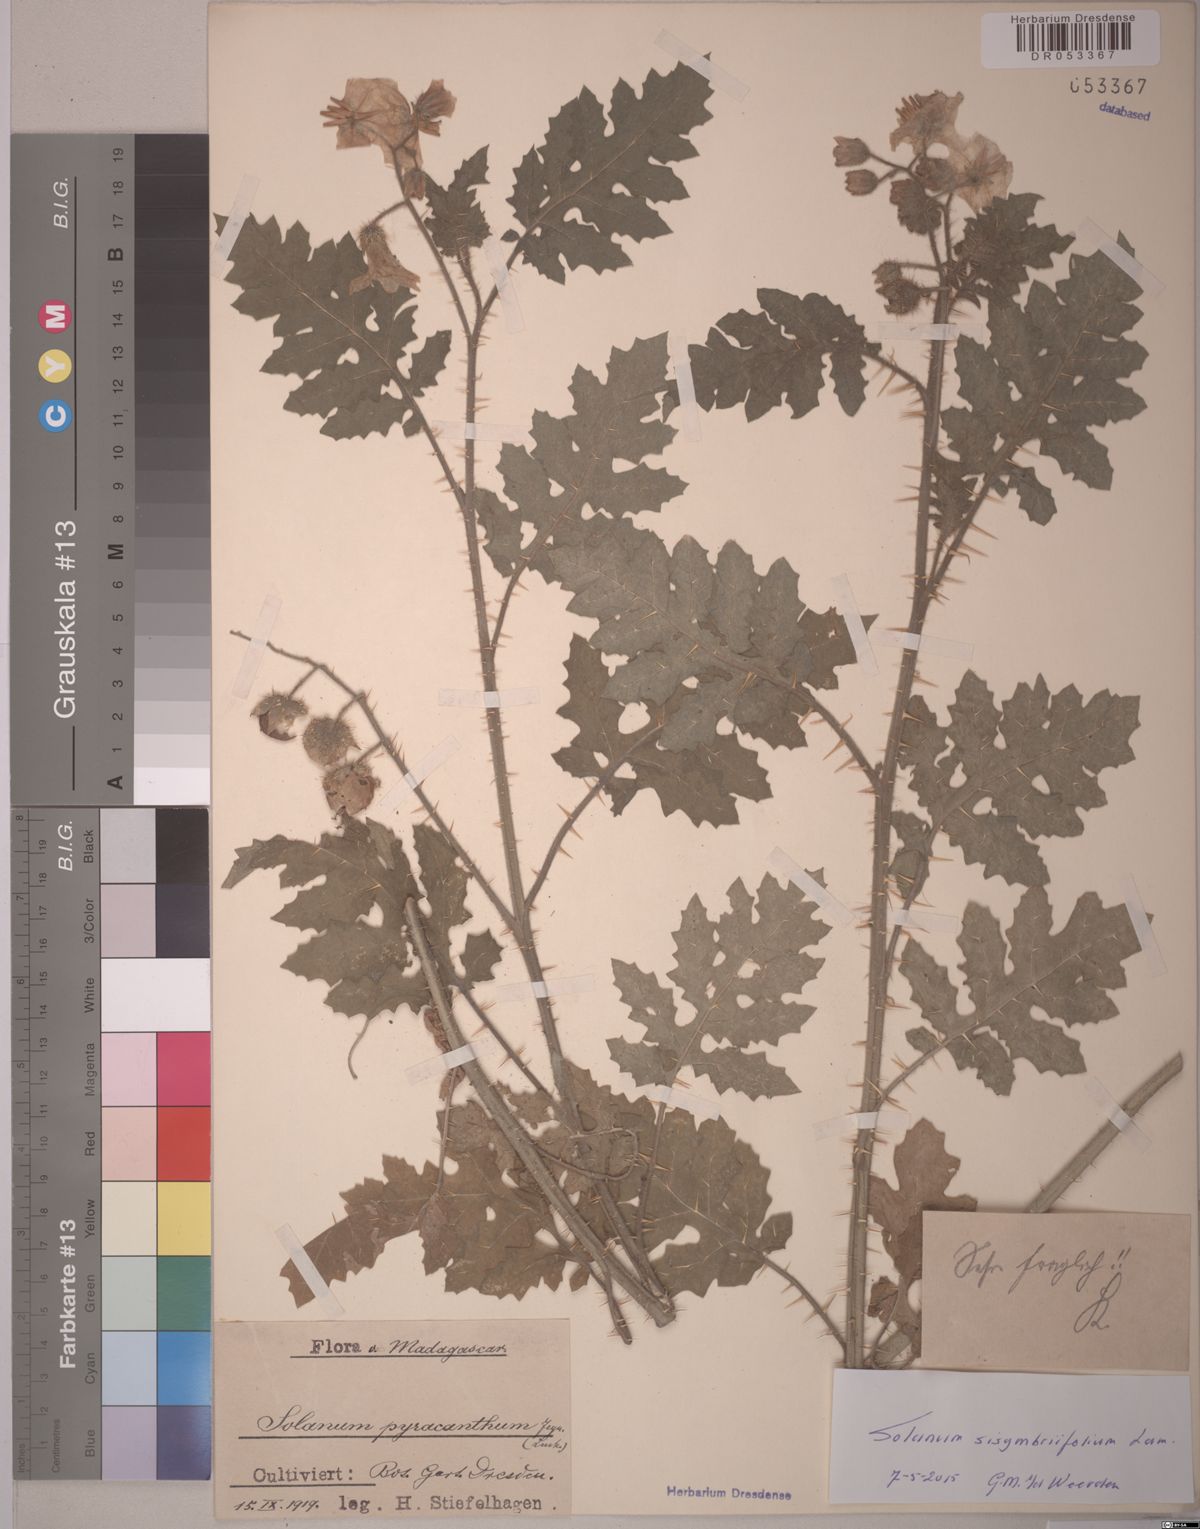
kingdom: Plantae
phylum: Tracheophyta
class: Magnoliopsida
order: Solanales
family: Solanaceae
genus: Solanum
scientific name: Solanum sisymbriifolium
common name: Red buffalo-bur
